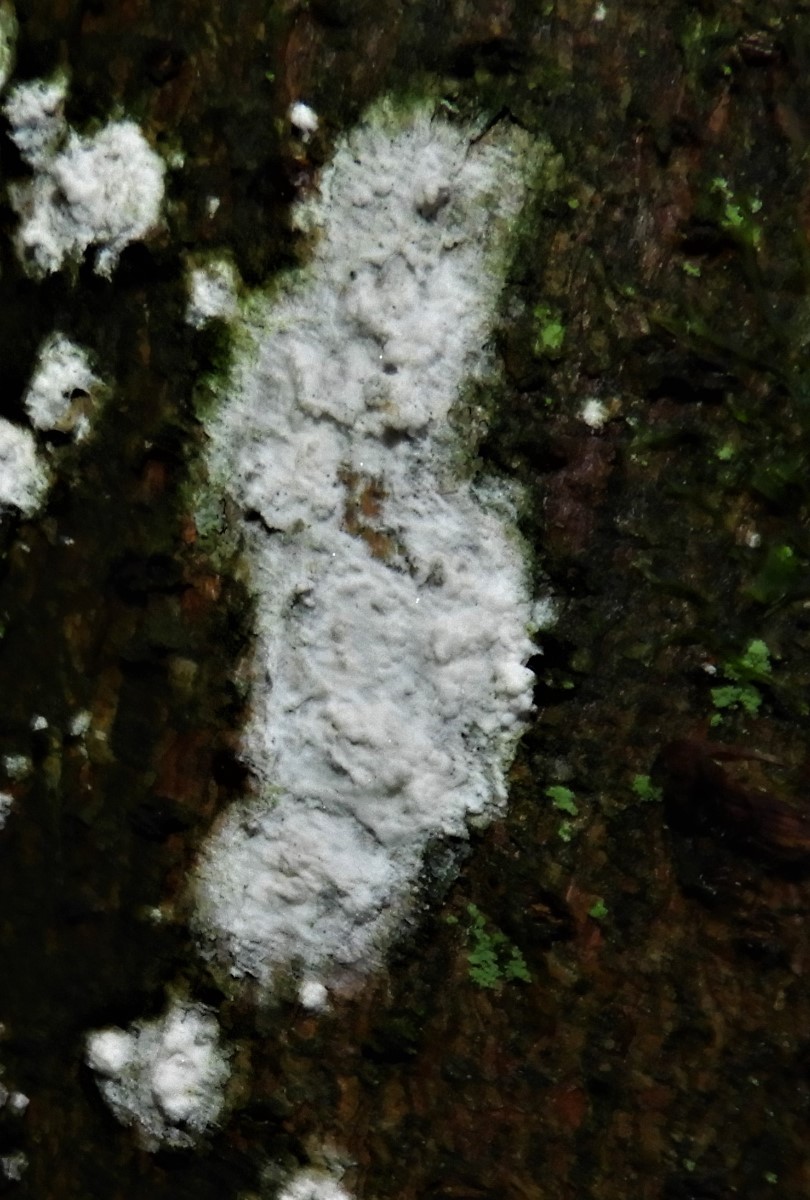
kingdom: Fungi
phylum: Basidiomycota
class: Agaricomycetes
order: Corticiales
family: Corticiaceae
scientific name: Corticiaceae
